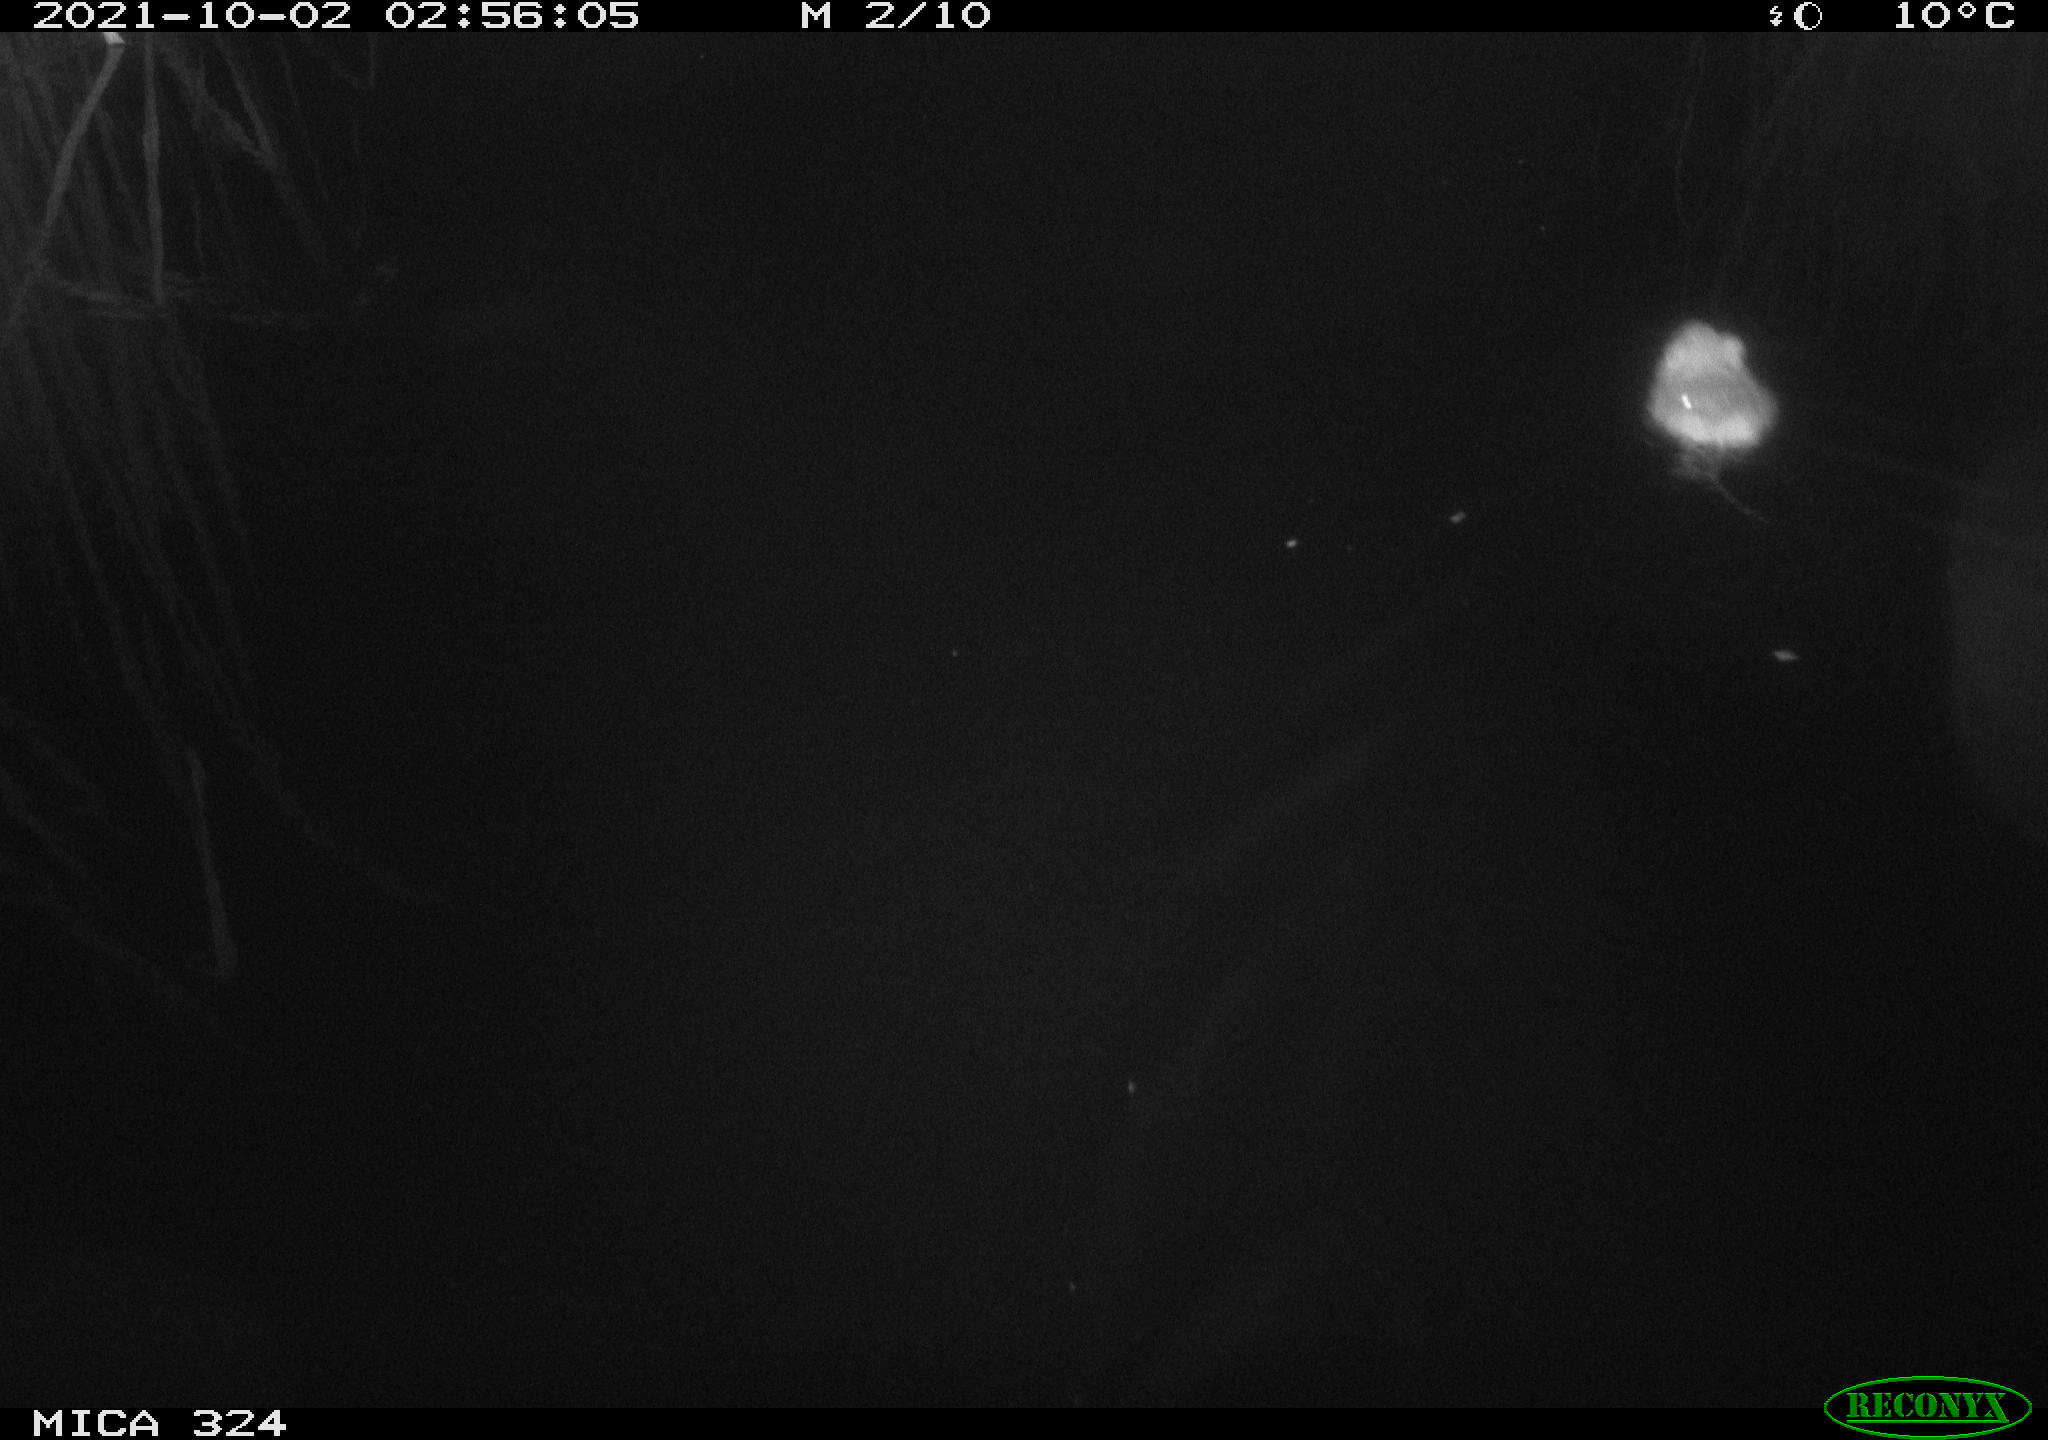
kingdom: Animalia
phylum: Chordata
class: Mammalia
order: Rodentia
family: Cricetidae
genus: Ondatra
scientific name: Ondatra zibethicus
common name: Muskrat
